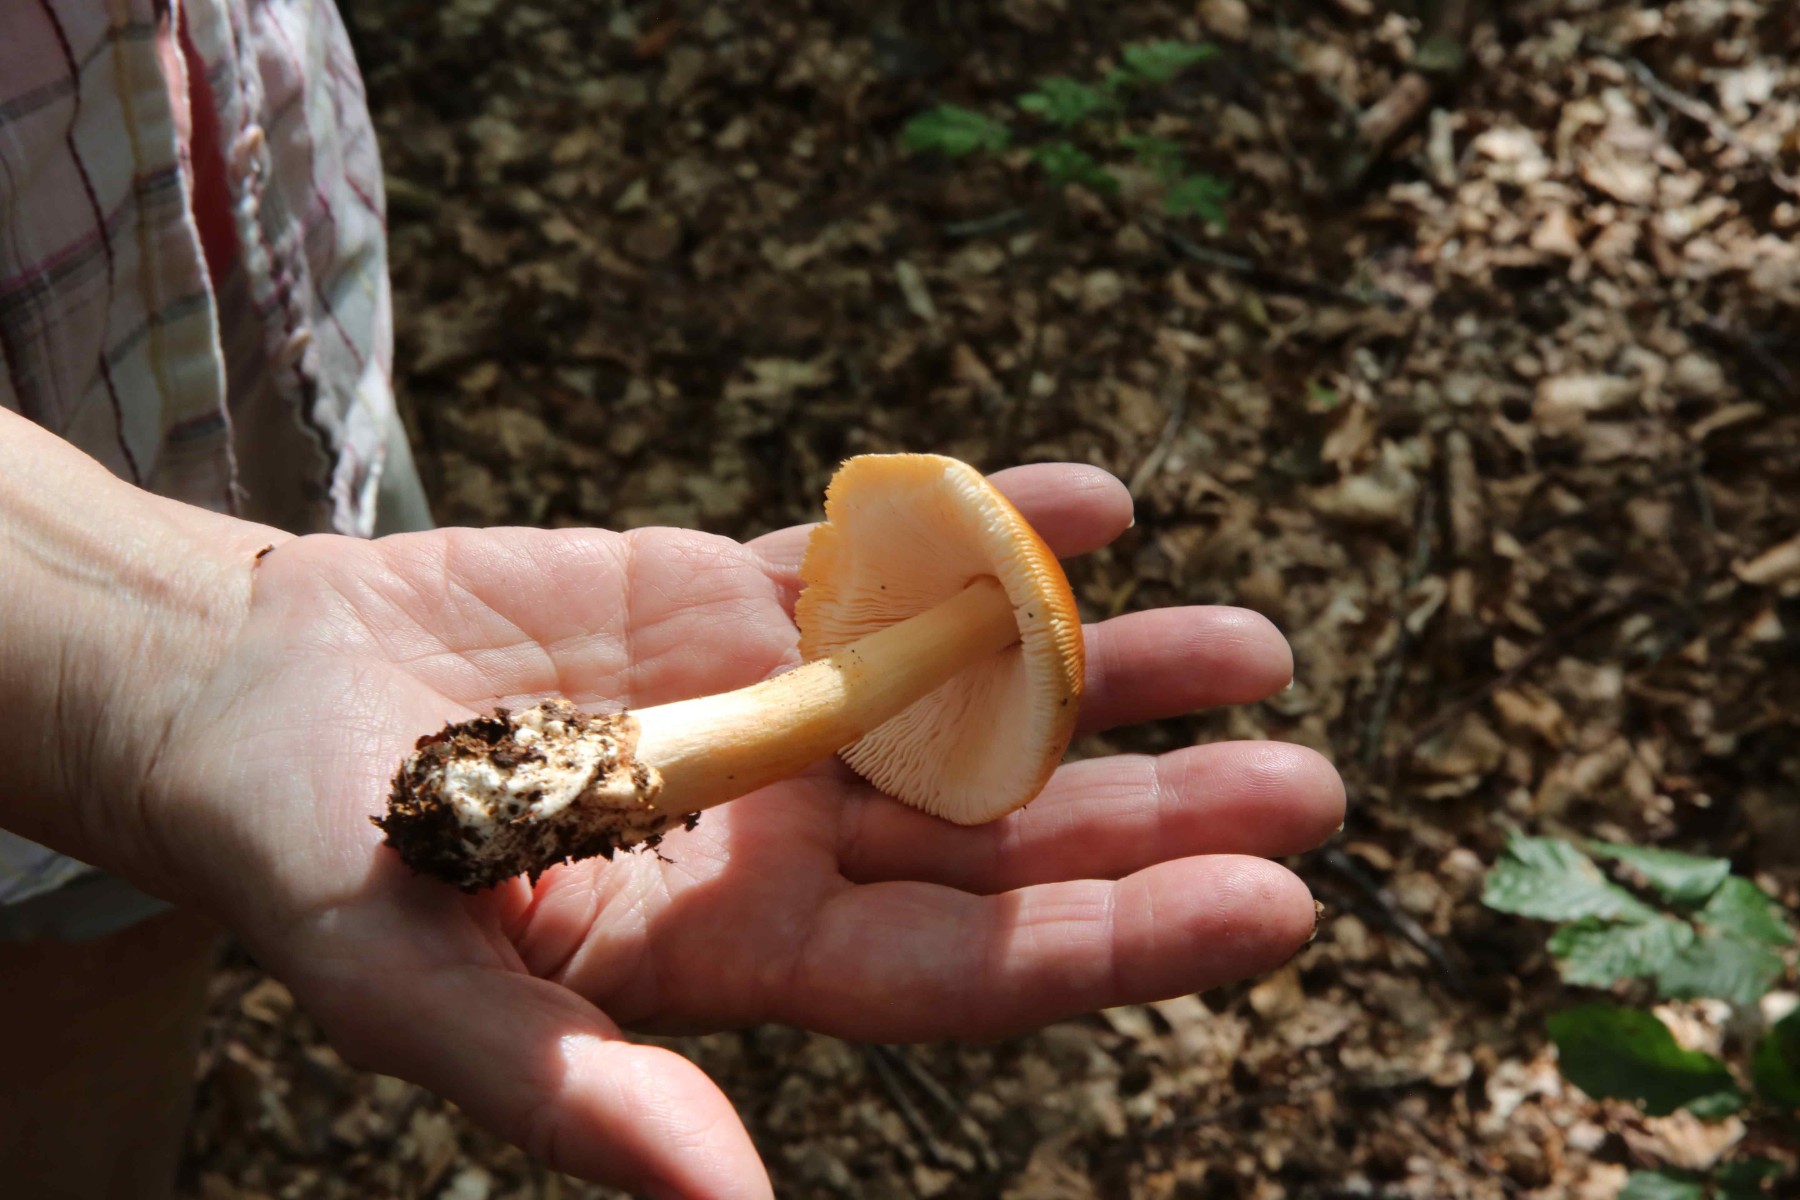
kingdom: Fungi
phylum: Basidiomycota
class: Agaricomycetes
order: Agaricales
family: Amanitaceae
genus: Amanita
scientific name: Amanita fulva
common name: brun kam-fluesvamp
